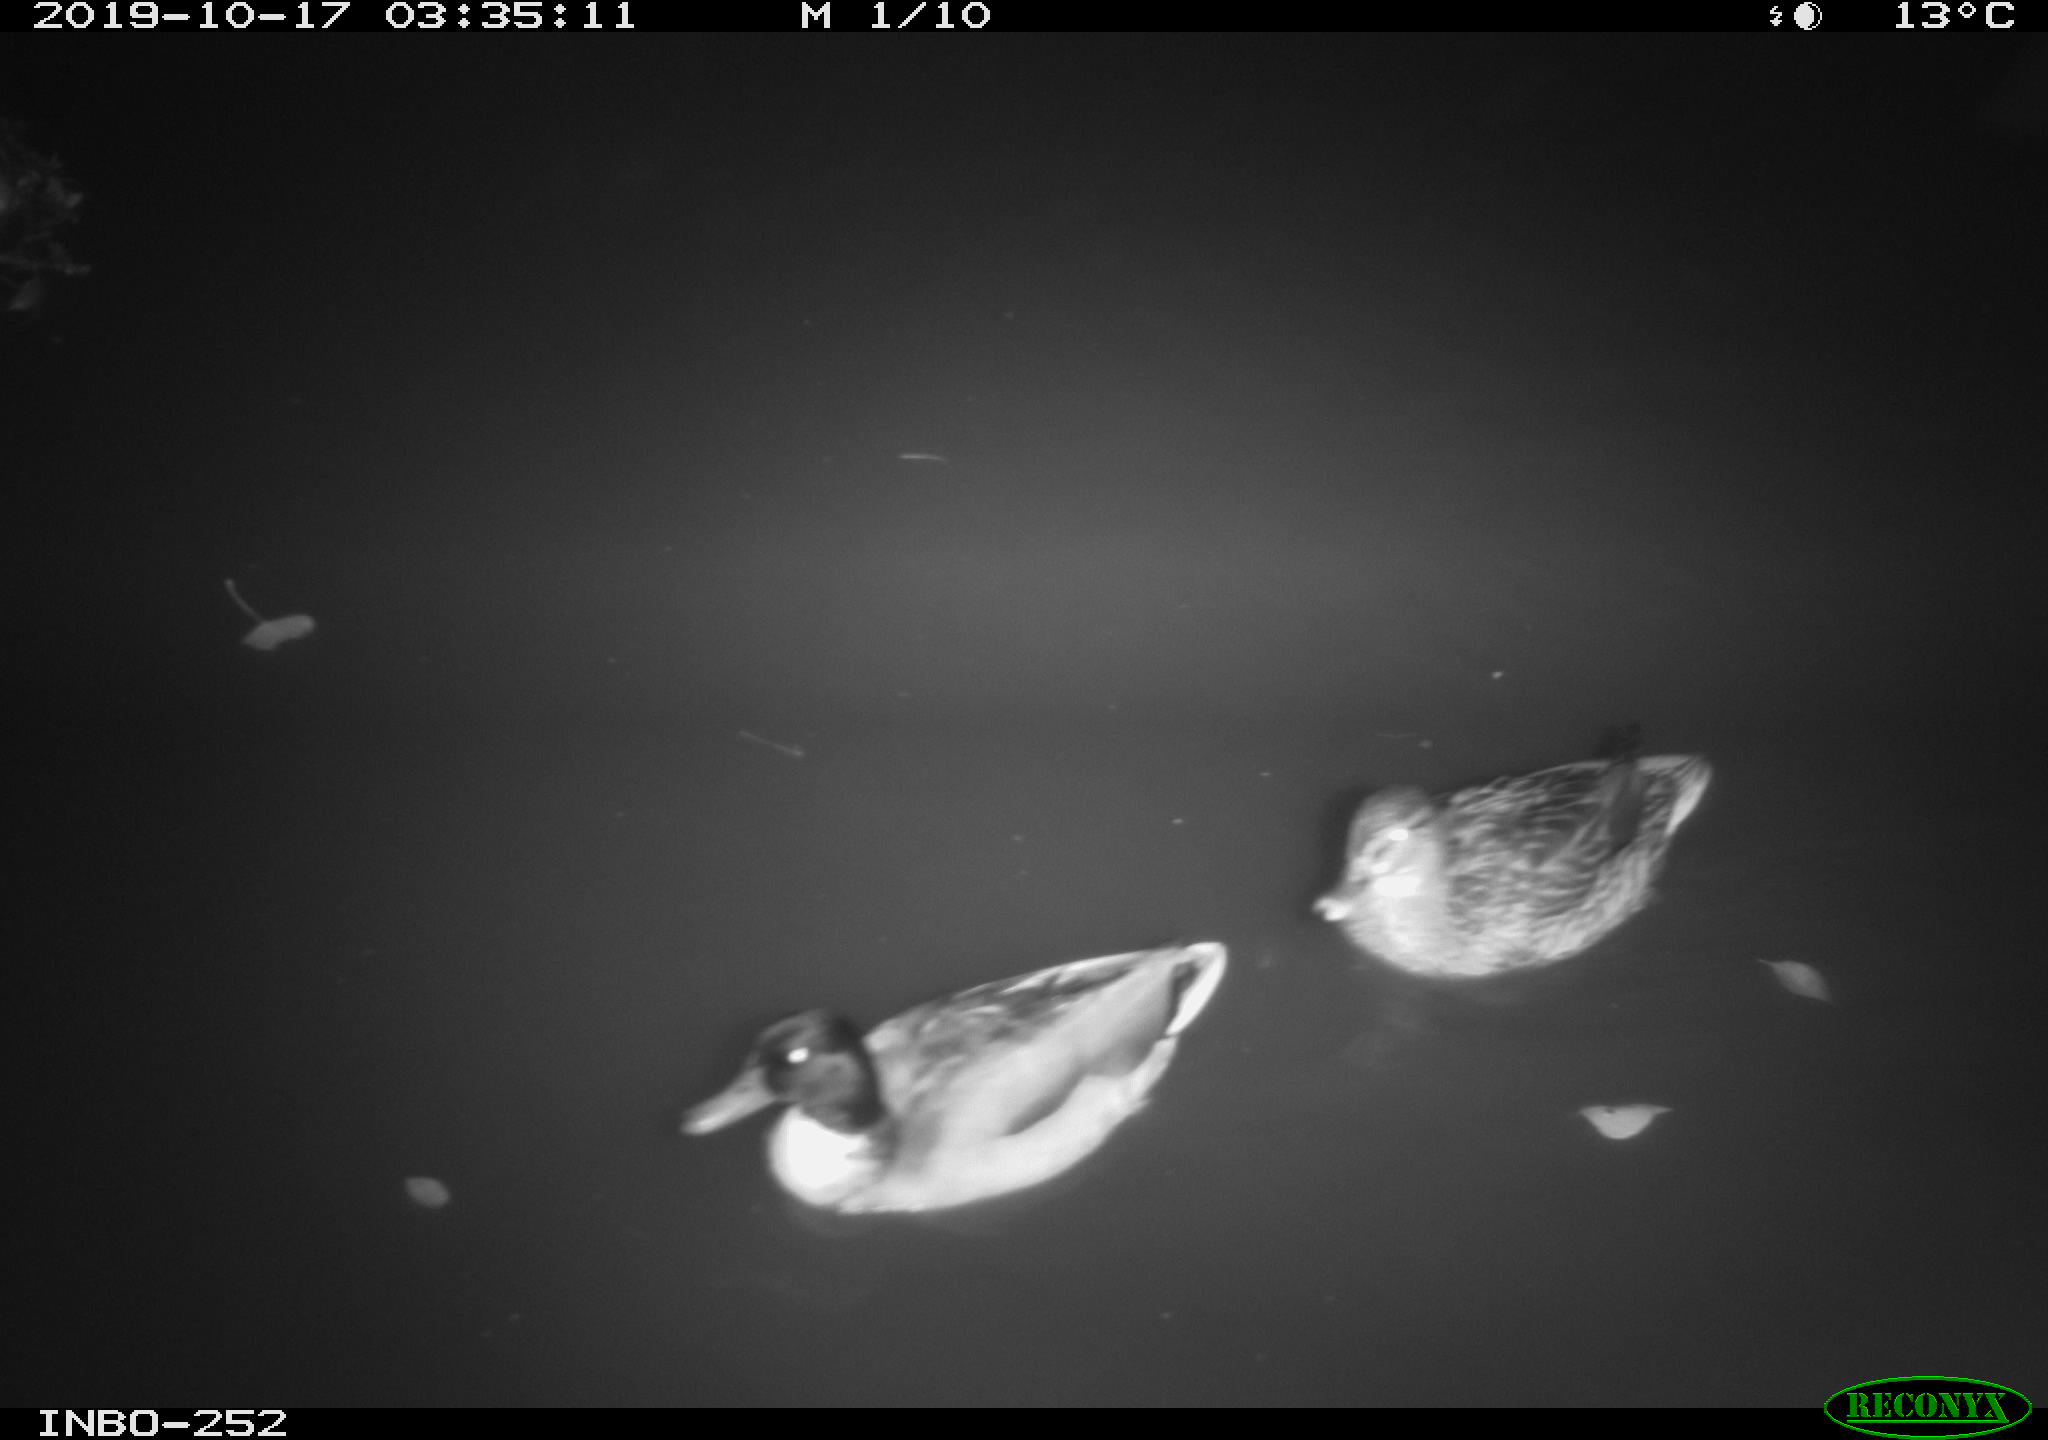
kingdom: Animalia
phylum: Chordata
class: Aves
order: Anseriformes
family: Anatidae
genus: Anas
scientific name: Anas platyrhynchos
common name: Mallard
